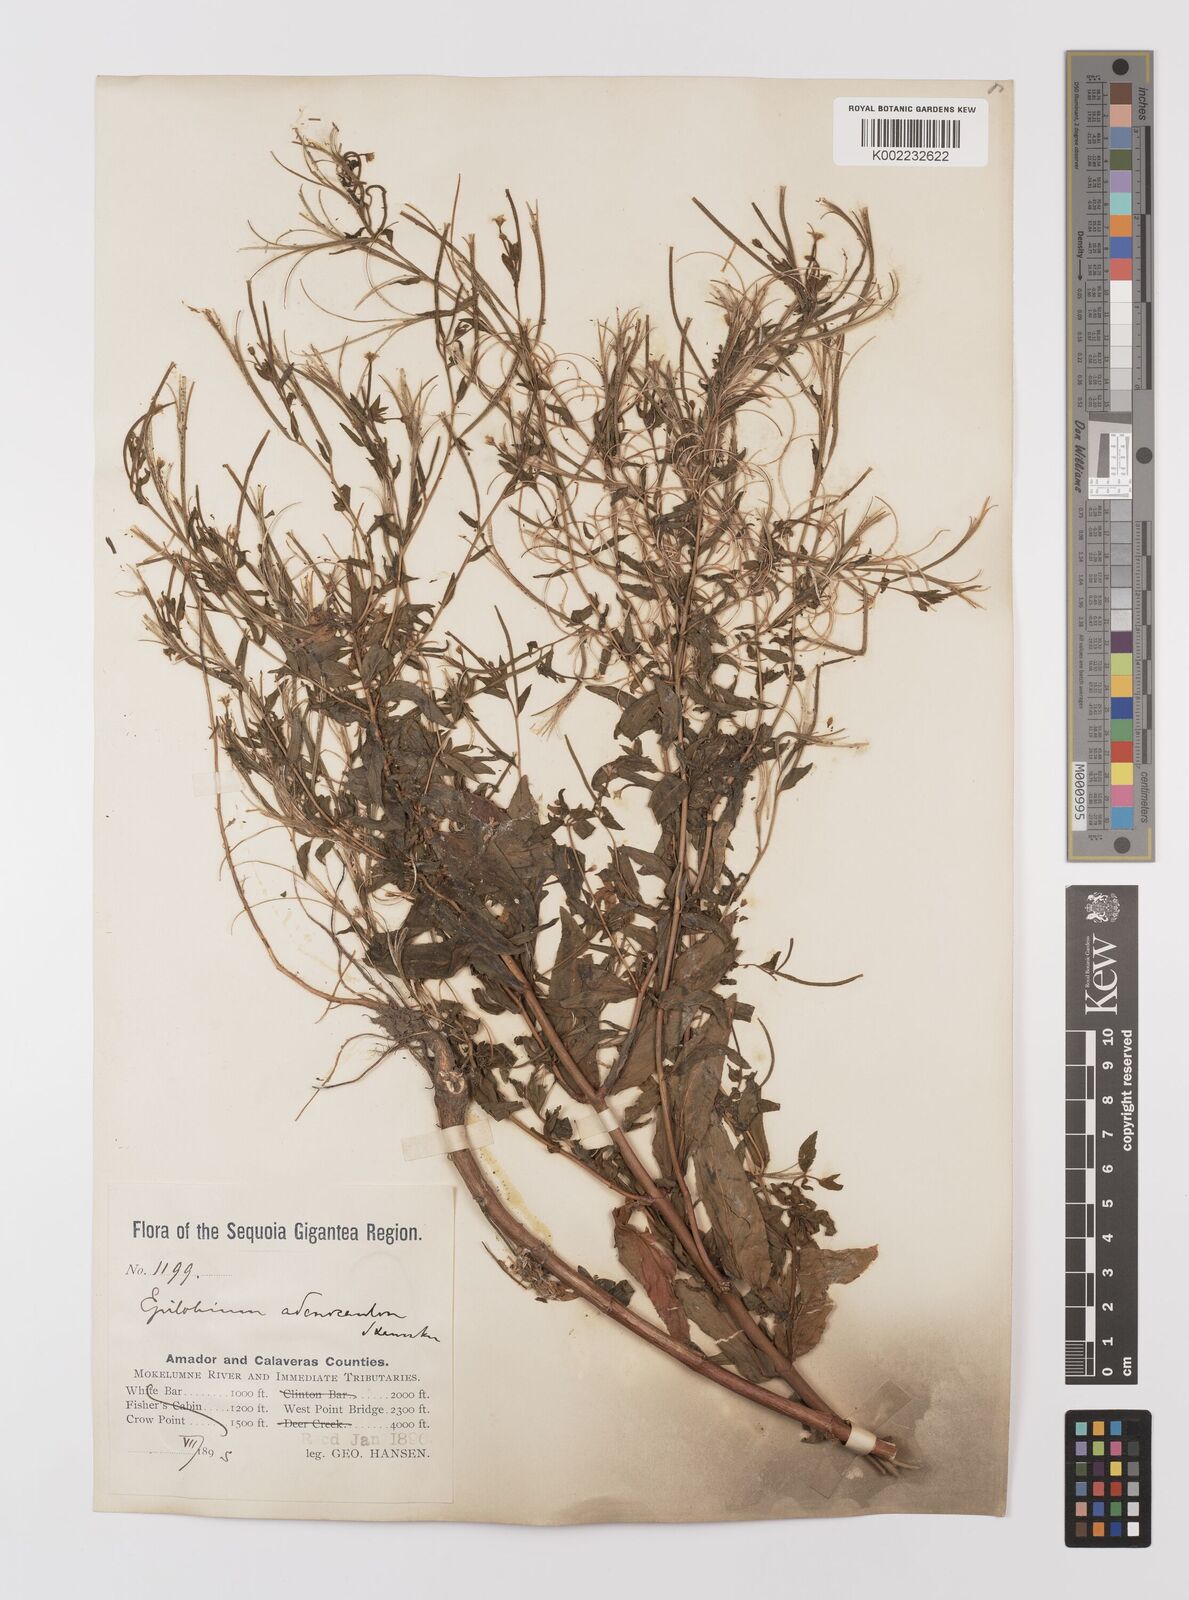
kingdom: Plantae
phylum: Tracheophyta
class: Magnoliopsida
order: Myrtales
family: Onagraceae
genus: Epilobium
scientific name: Epilobium ciliatum
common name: American willowherb
